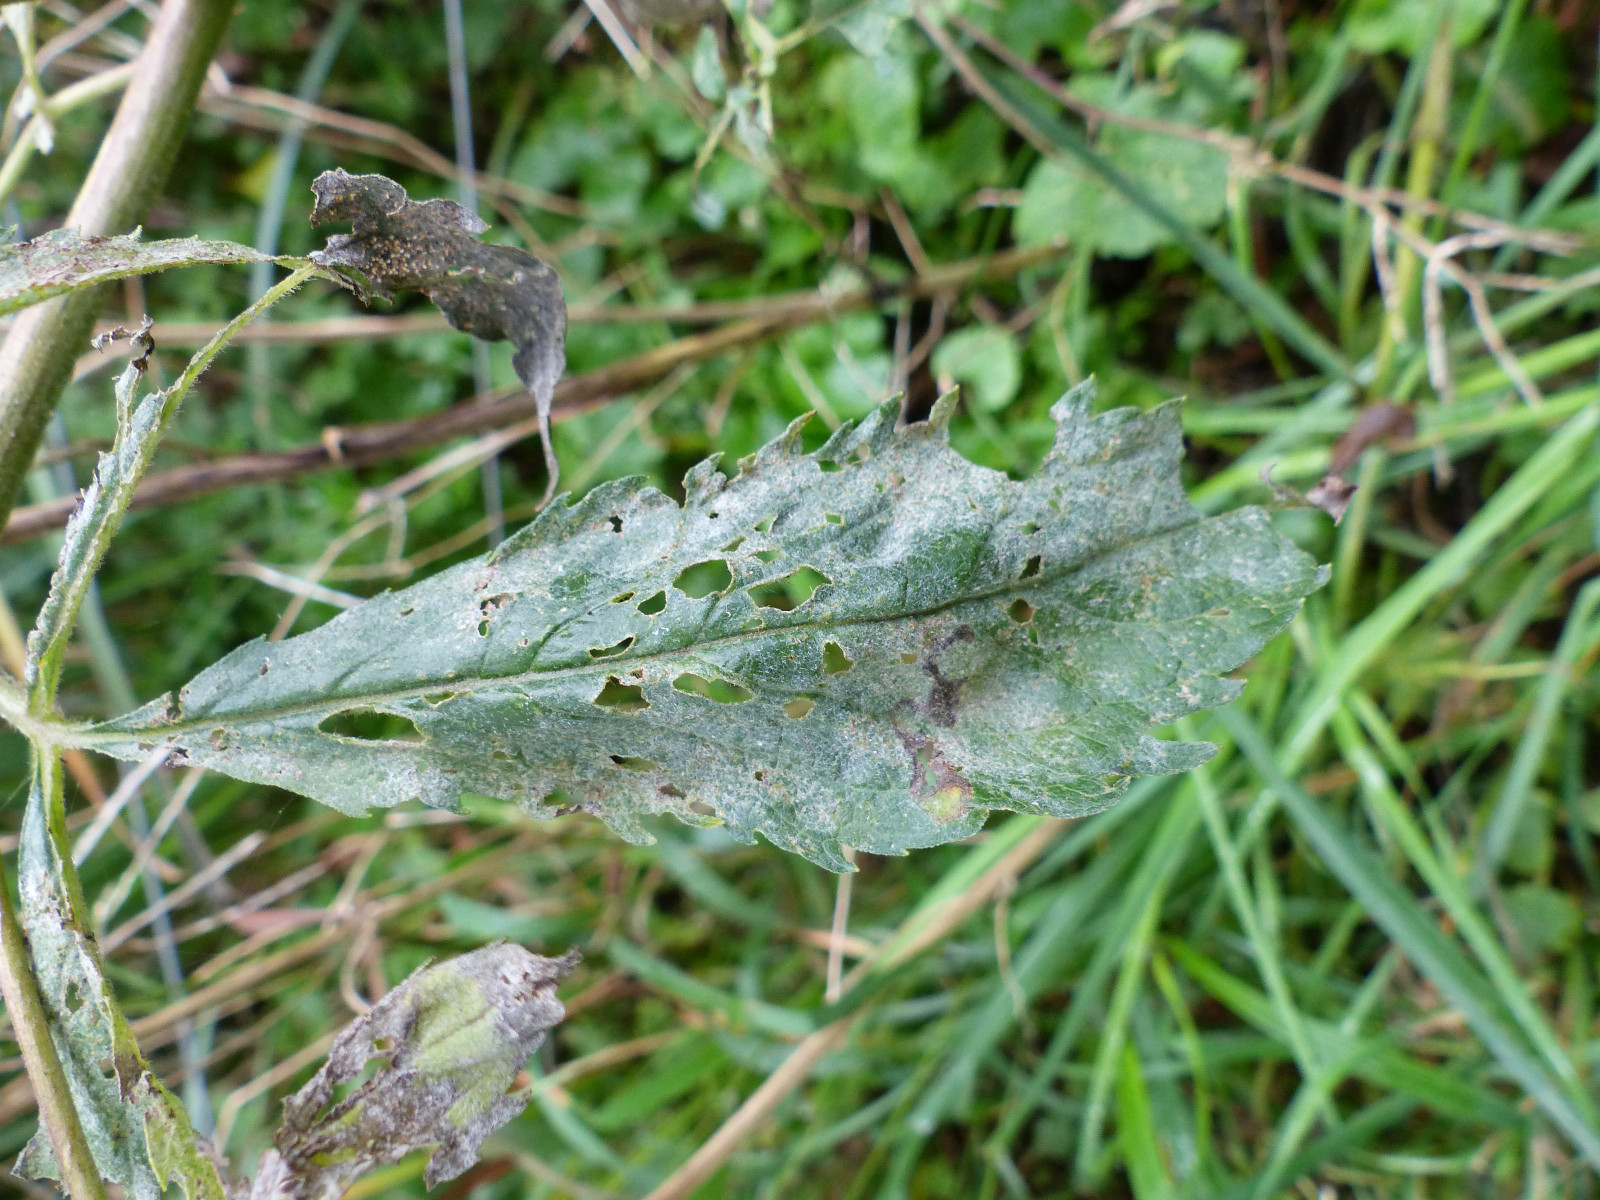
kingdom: Fungi
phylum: Ascomycota
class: Leotiomycetes
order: Helotiales
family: Erysiphaceae
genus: Golovinomyces
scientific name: Golovinomyces circumfusus
